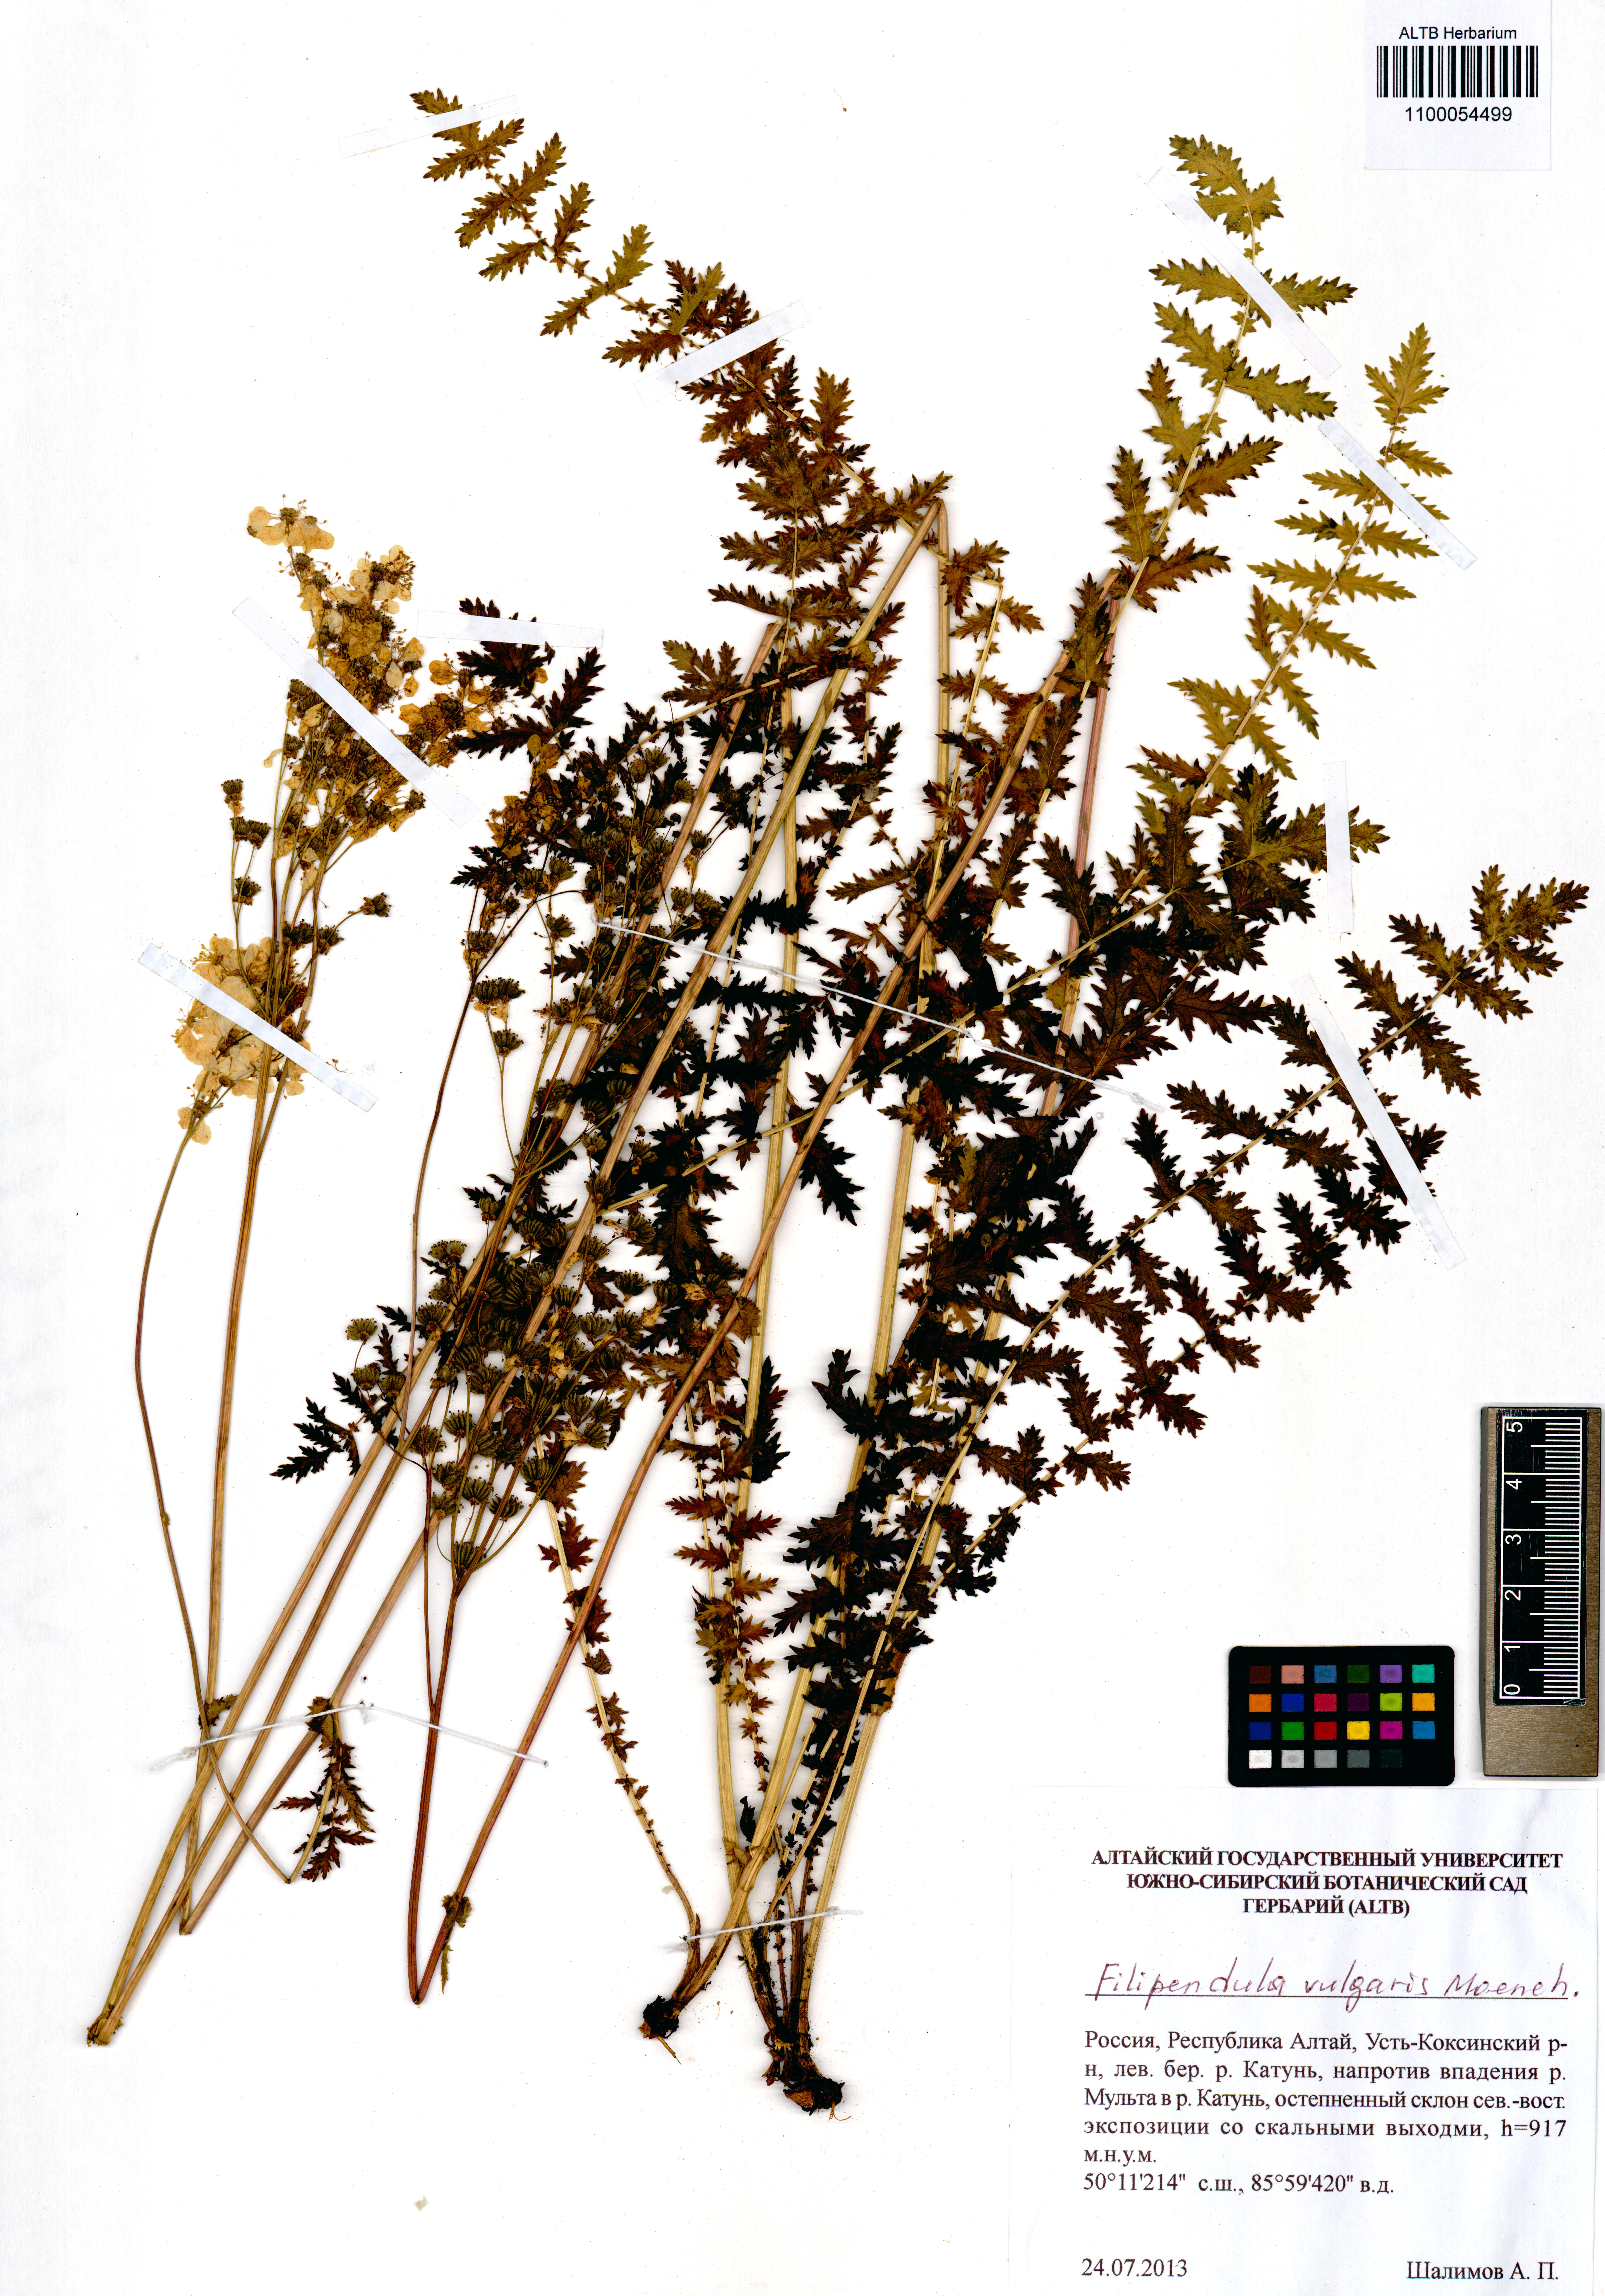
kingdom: Plantae
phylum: Tracheophyta
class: Magnoliopsida
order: Rosales
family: Rosaceae
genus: Filipendula
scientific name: Filipendula vulgaris
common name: Dropwort
